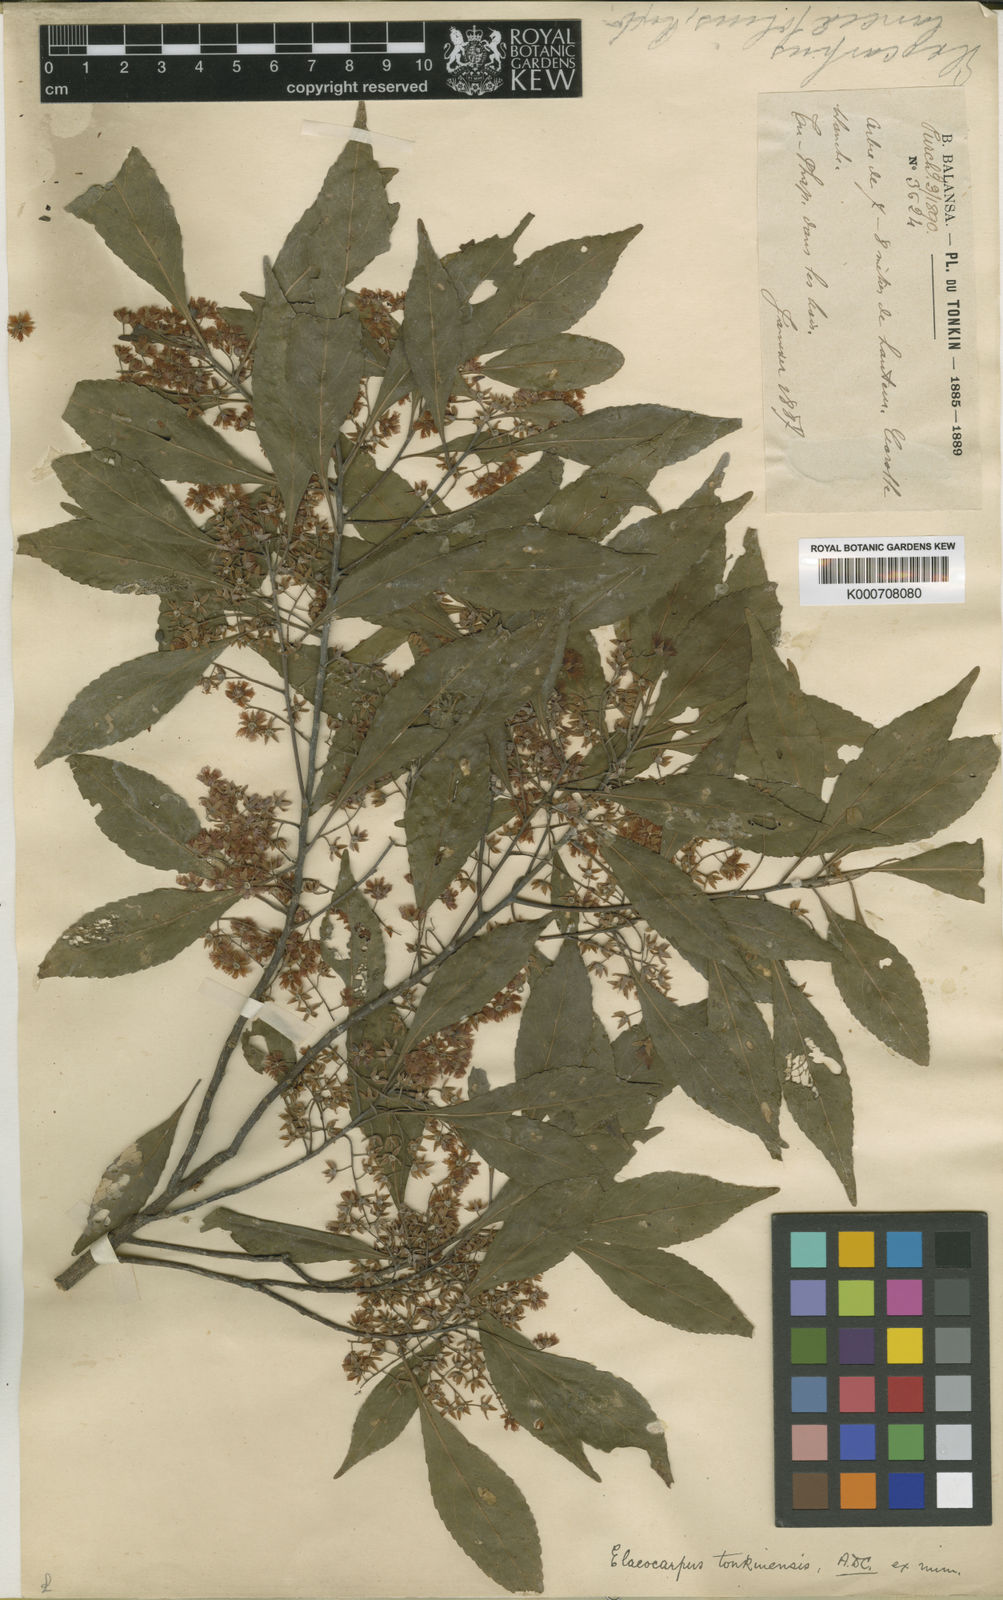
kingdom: Plantae
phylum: Tracheophyta
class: Magnoliopsida
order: Oxalidales
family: Elaeocarpaceae
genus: Elaeocarpus
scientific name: Elaeocarpus tonkinensis
